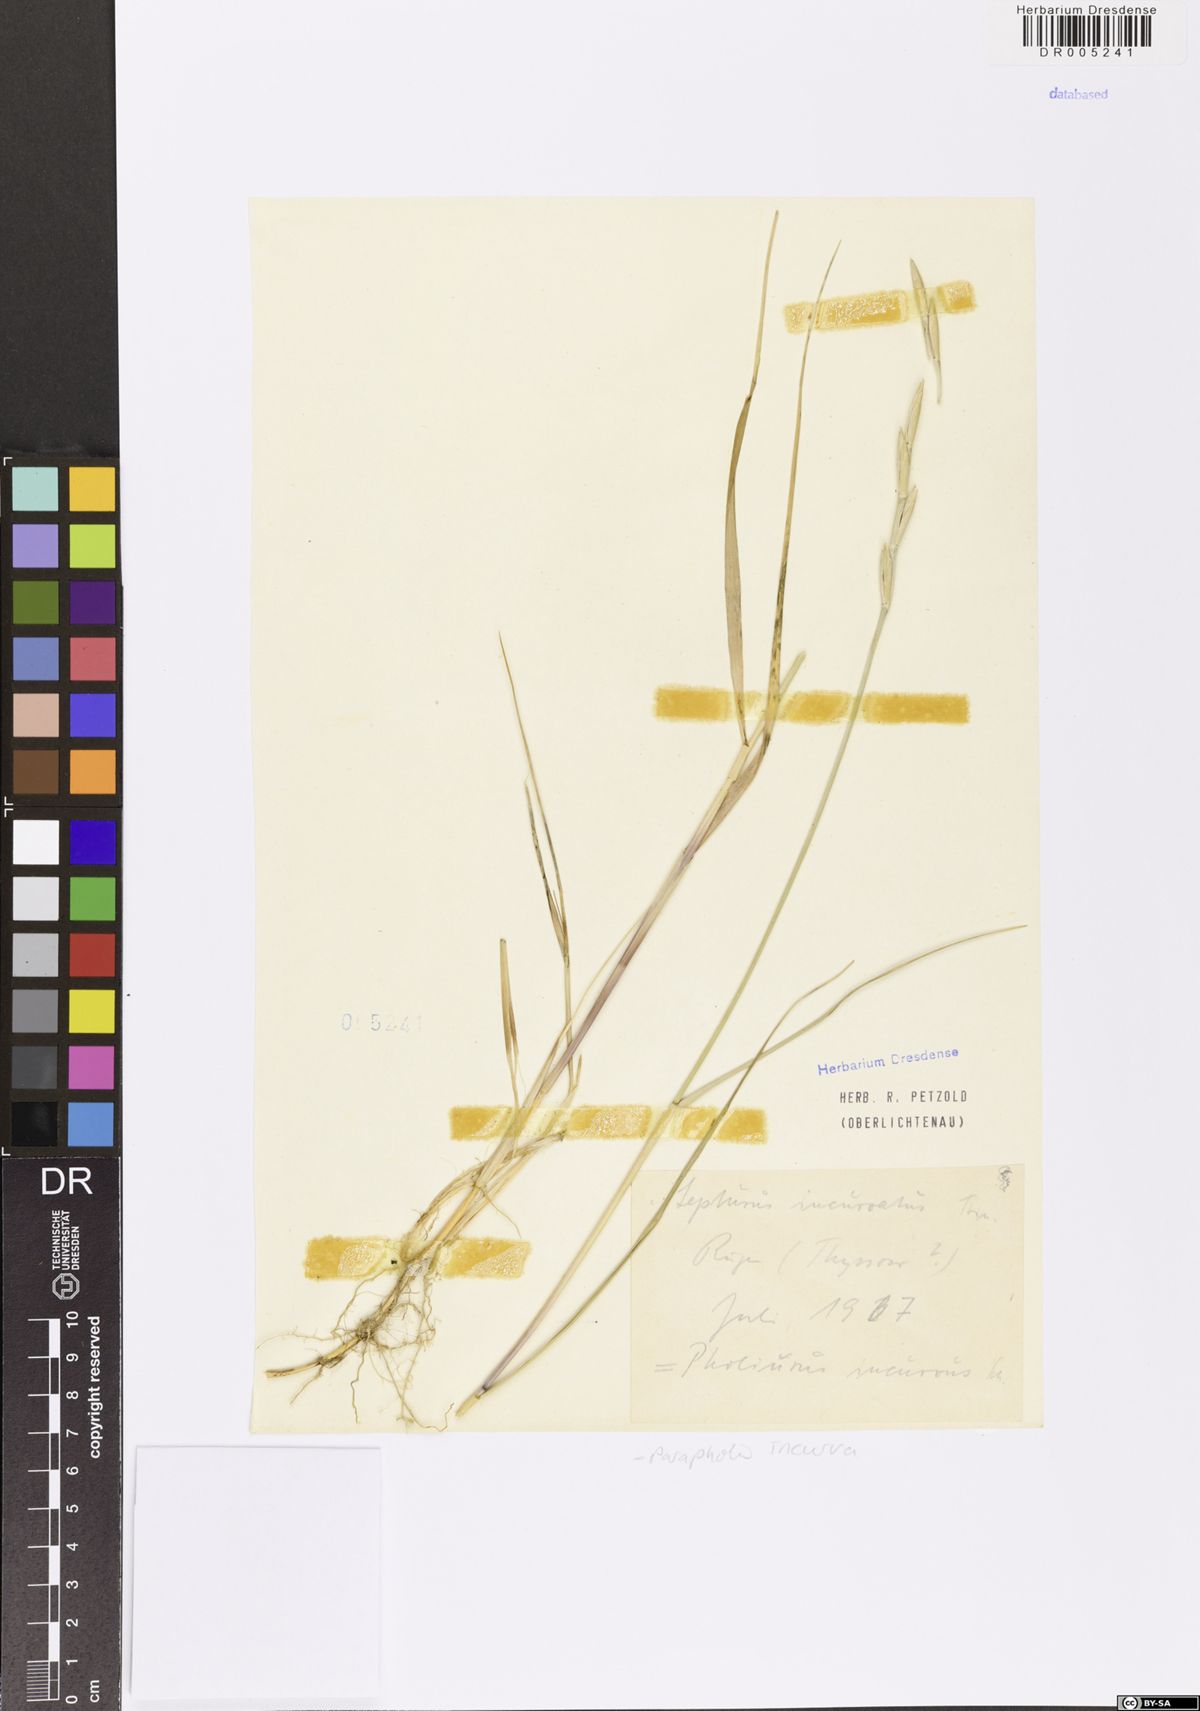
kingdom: Plantae
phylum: Tracheophyta
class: Liliopsida
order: Poales
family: Poaceae
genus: Parapholis
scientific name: Parapholis incurva
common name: Curved sicklegrass
